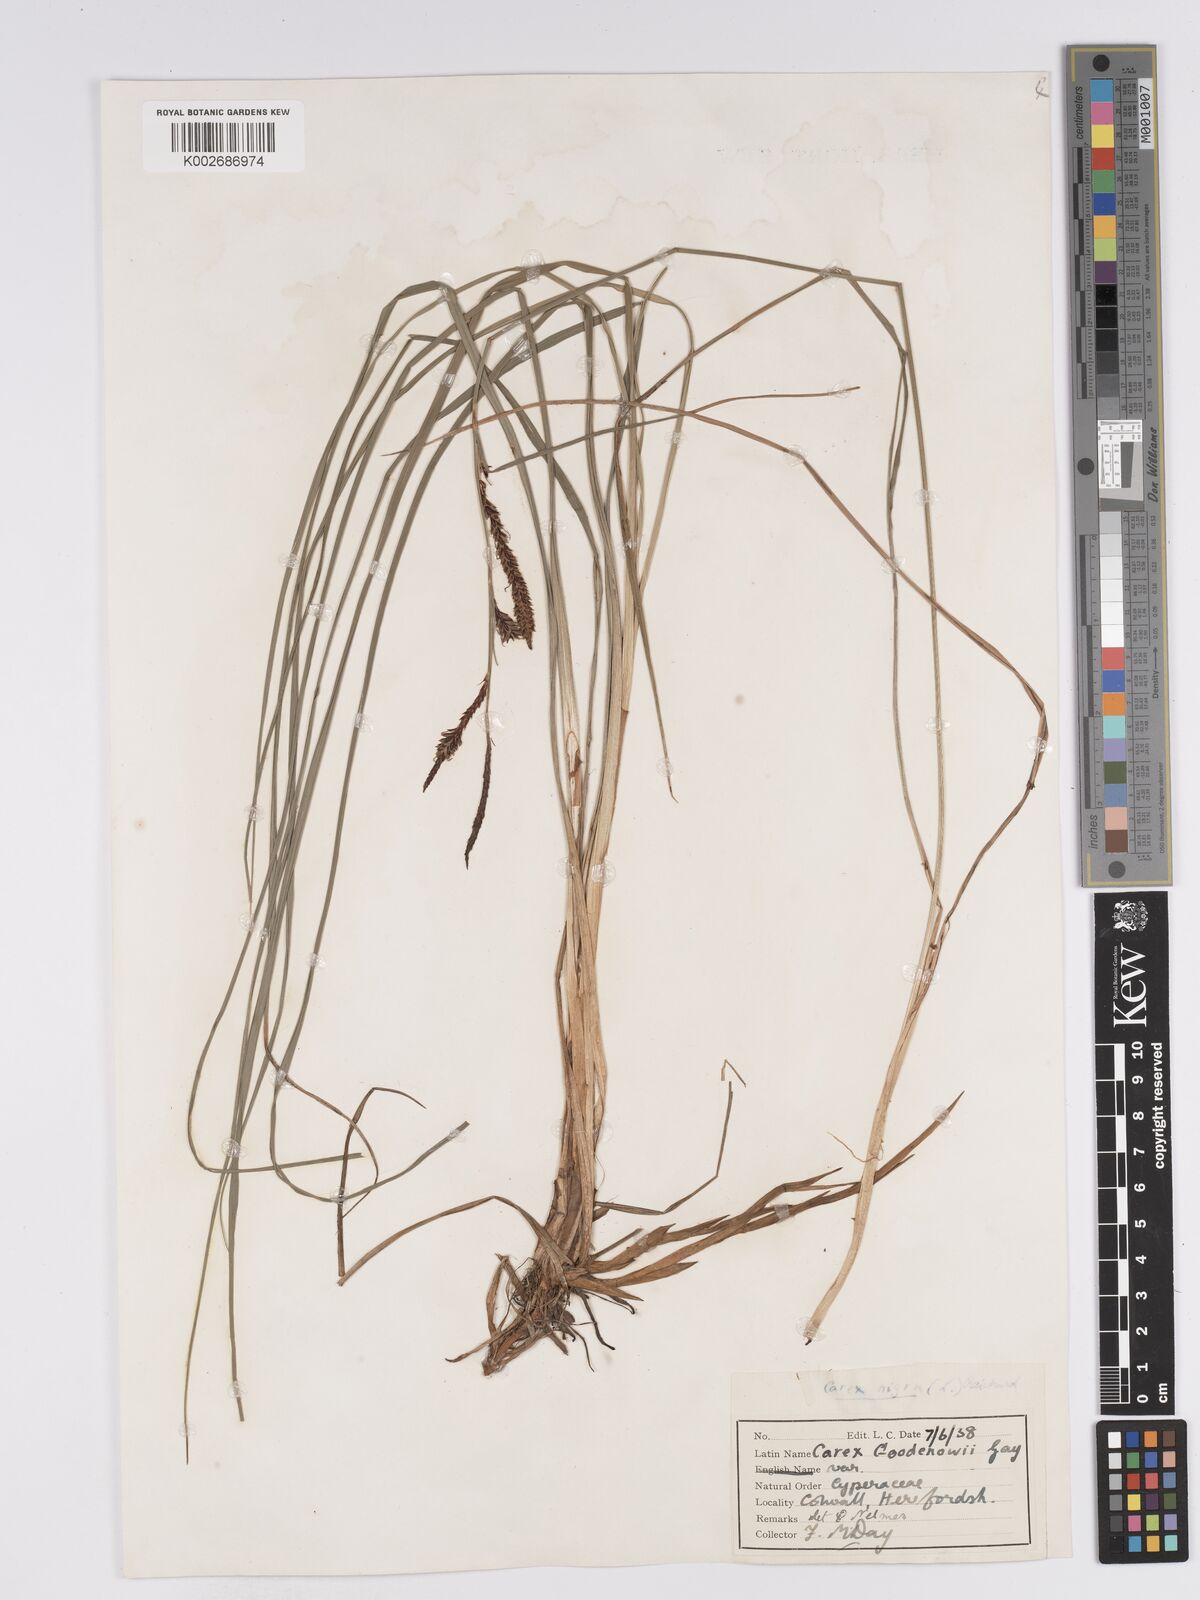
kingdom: Plantae
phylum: Tracheophyta
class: Liliopsida
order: Poales
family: Cyperaceae
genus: Carex
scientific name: Carex nigra
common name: Common sedge
